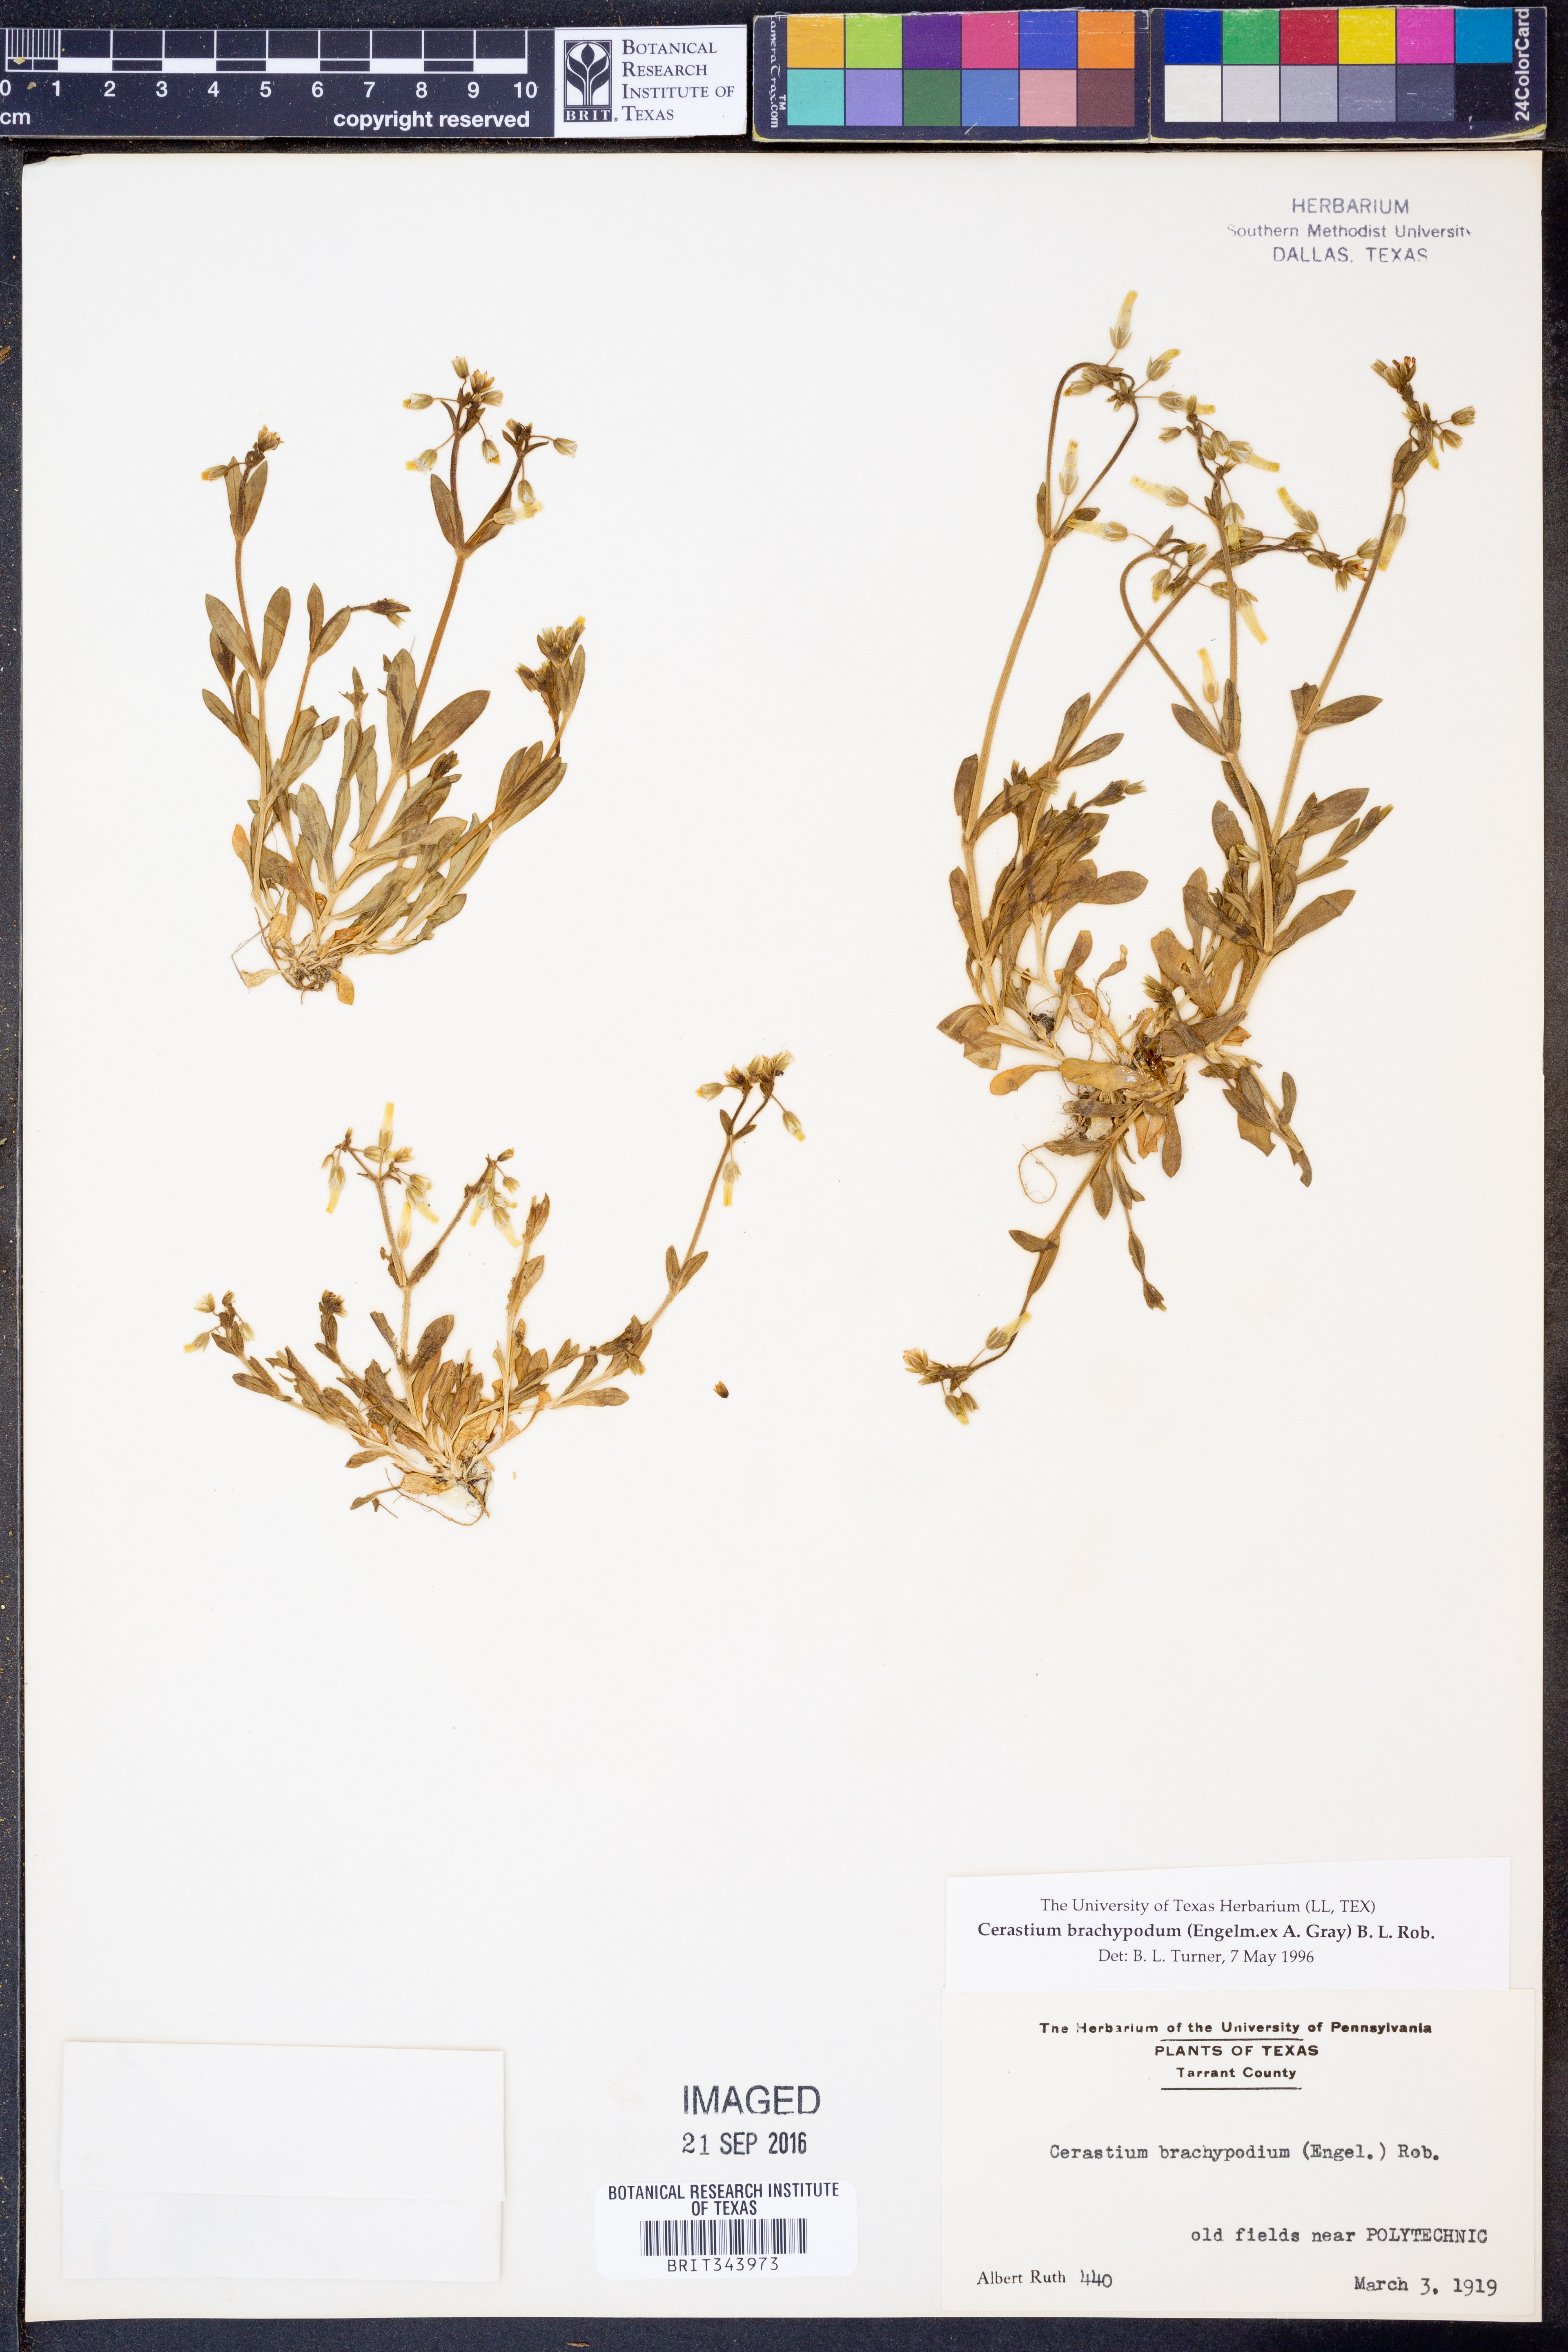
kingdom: Plantae
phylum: Tracheophyta
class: Magnoliopsida
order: Caryophyllales
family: Caryophyllaceae
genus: Cerastium
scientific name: Cerastium brachypodum
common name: Short-pedicelled nodding chickweed
